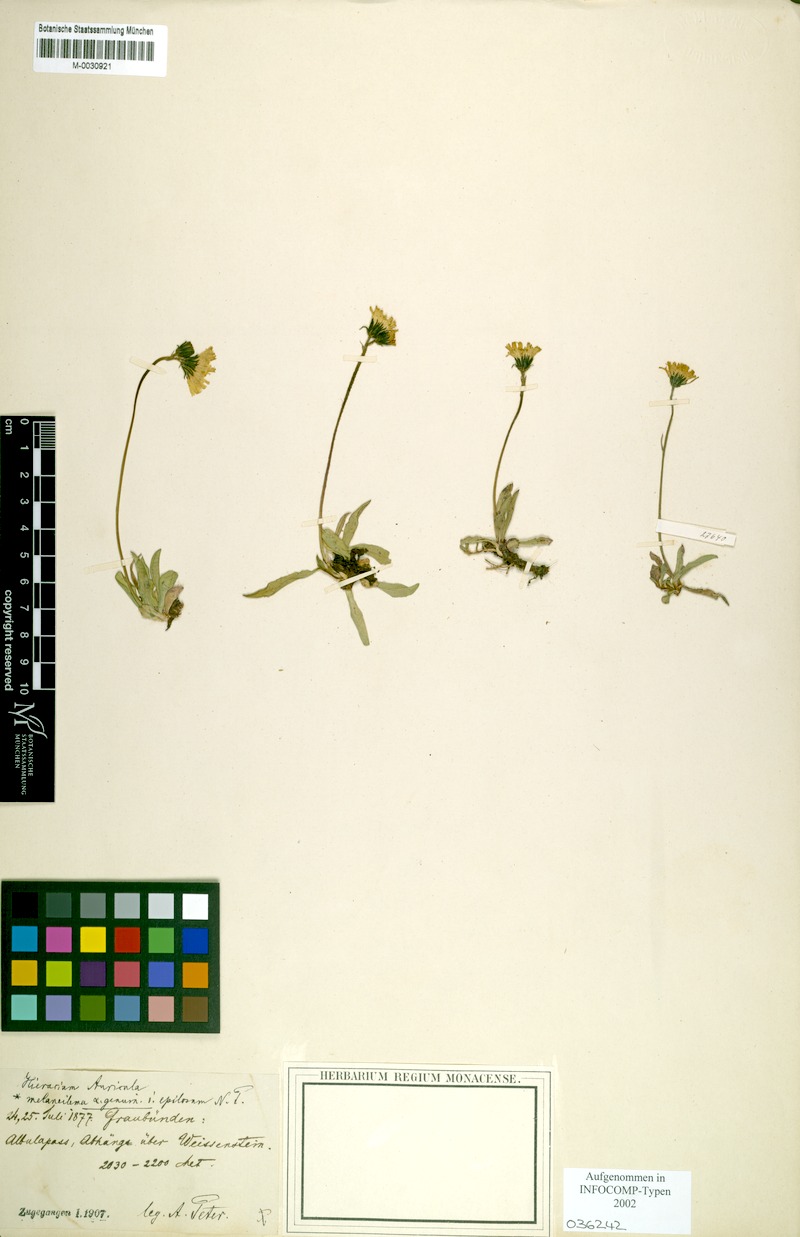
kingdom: Plantae
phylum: Tracheophyta
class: Magnoliopsida
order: Asterales
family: Asteraceae
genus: Pilosella
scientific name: Pilosella lactucella
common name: Glaucous fox-and-cubs
